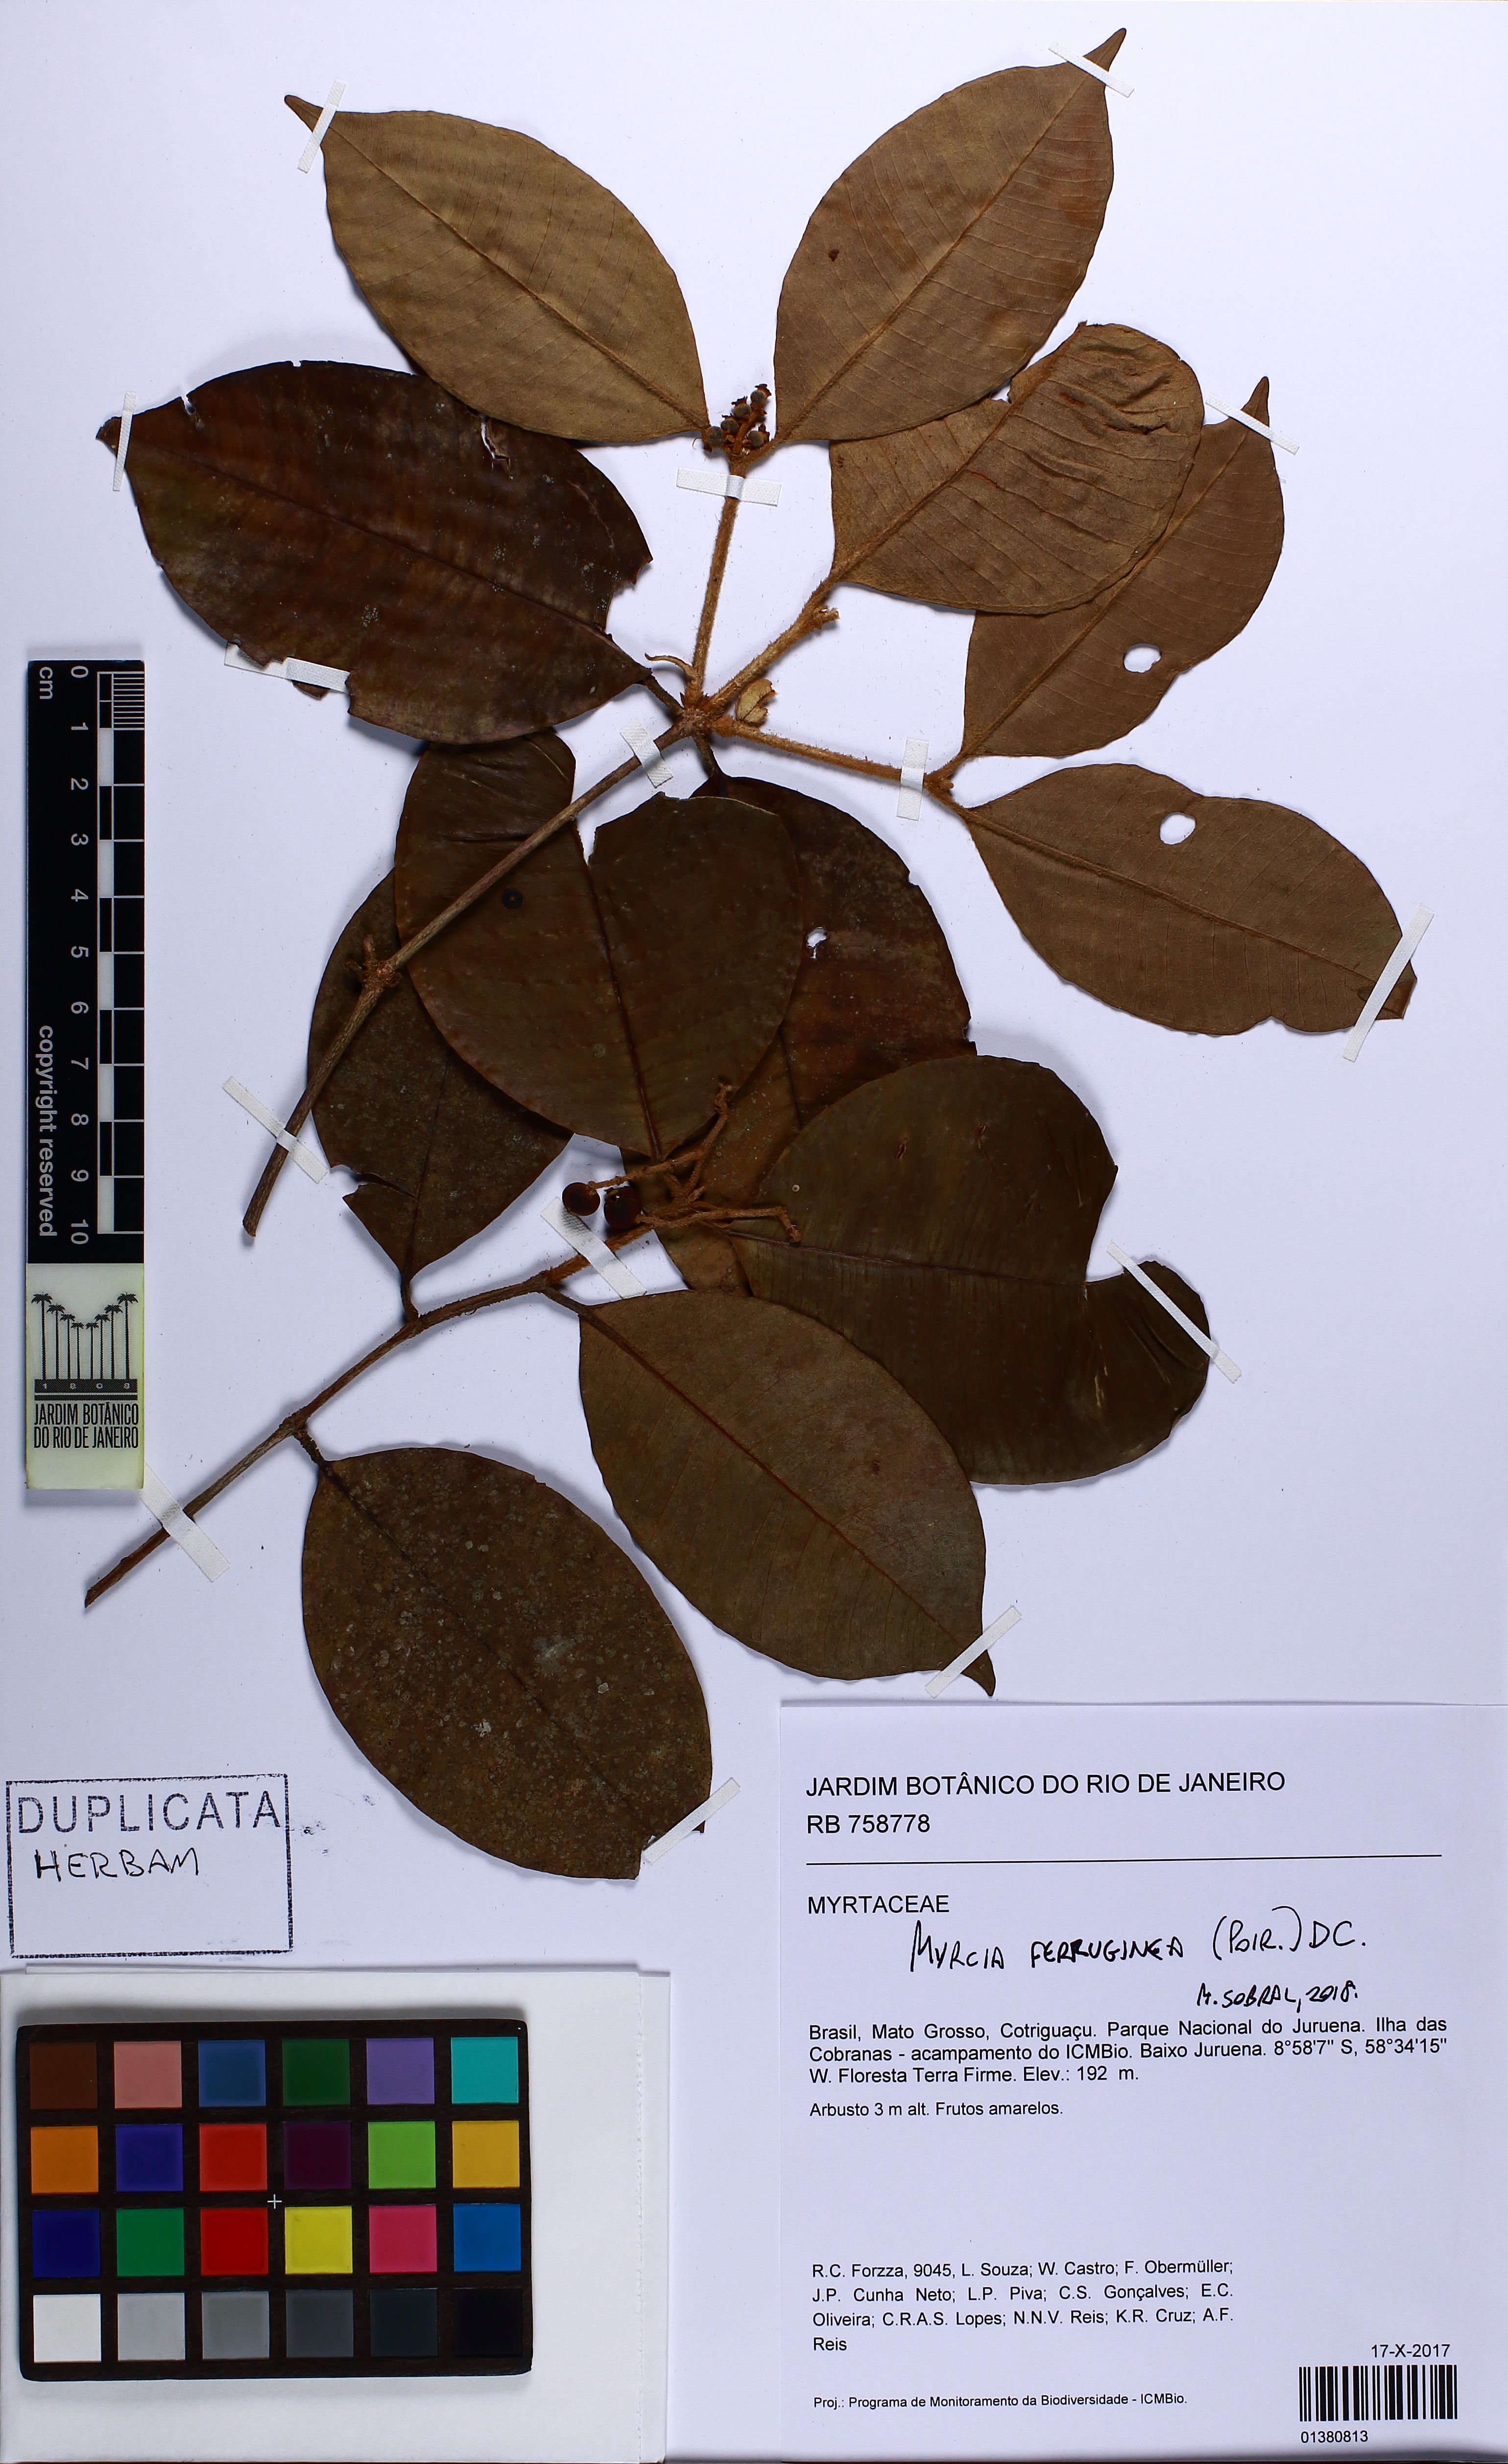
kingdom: Plantae
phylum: Tracheophyta
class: Magnoliopsida
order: Myrtales
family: Myrtaceae
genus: Myrcia
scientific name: Myrcia ferruginea
